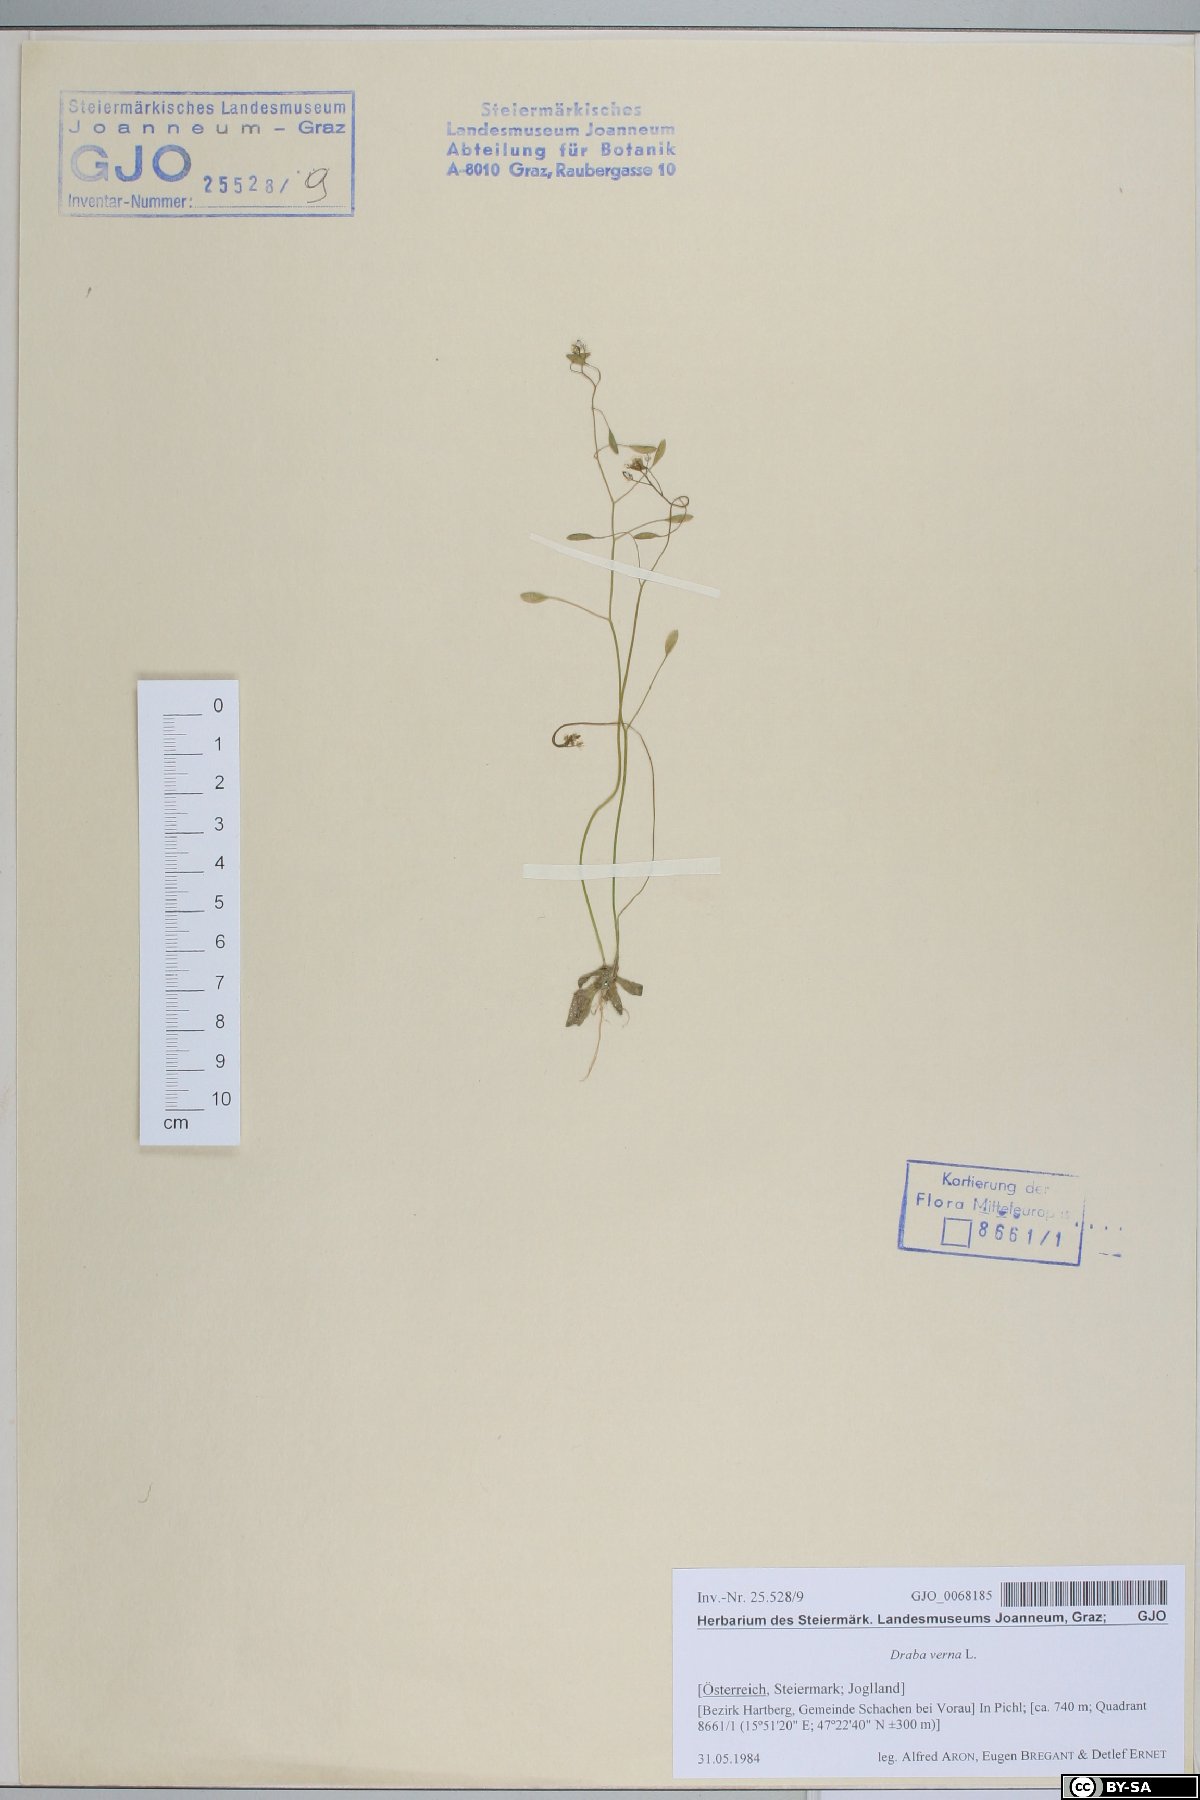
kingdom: Plantae
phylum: Tracheophyta
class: Magnoliopsida
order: Brassicales
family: Brassicaceae
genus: Draba
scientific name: Draba verna
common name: Spring draba
